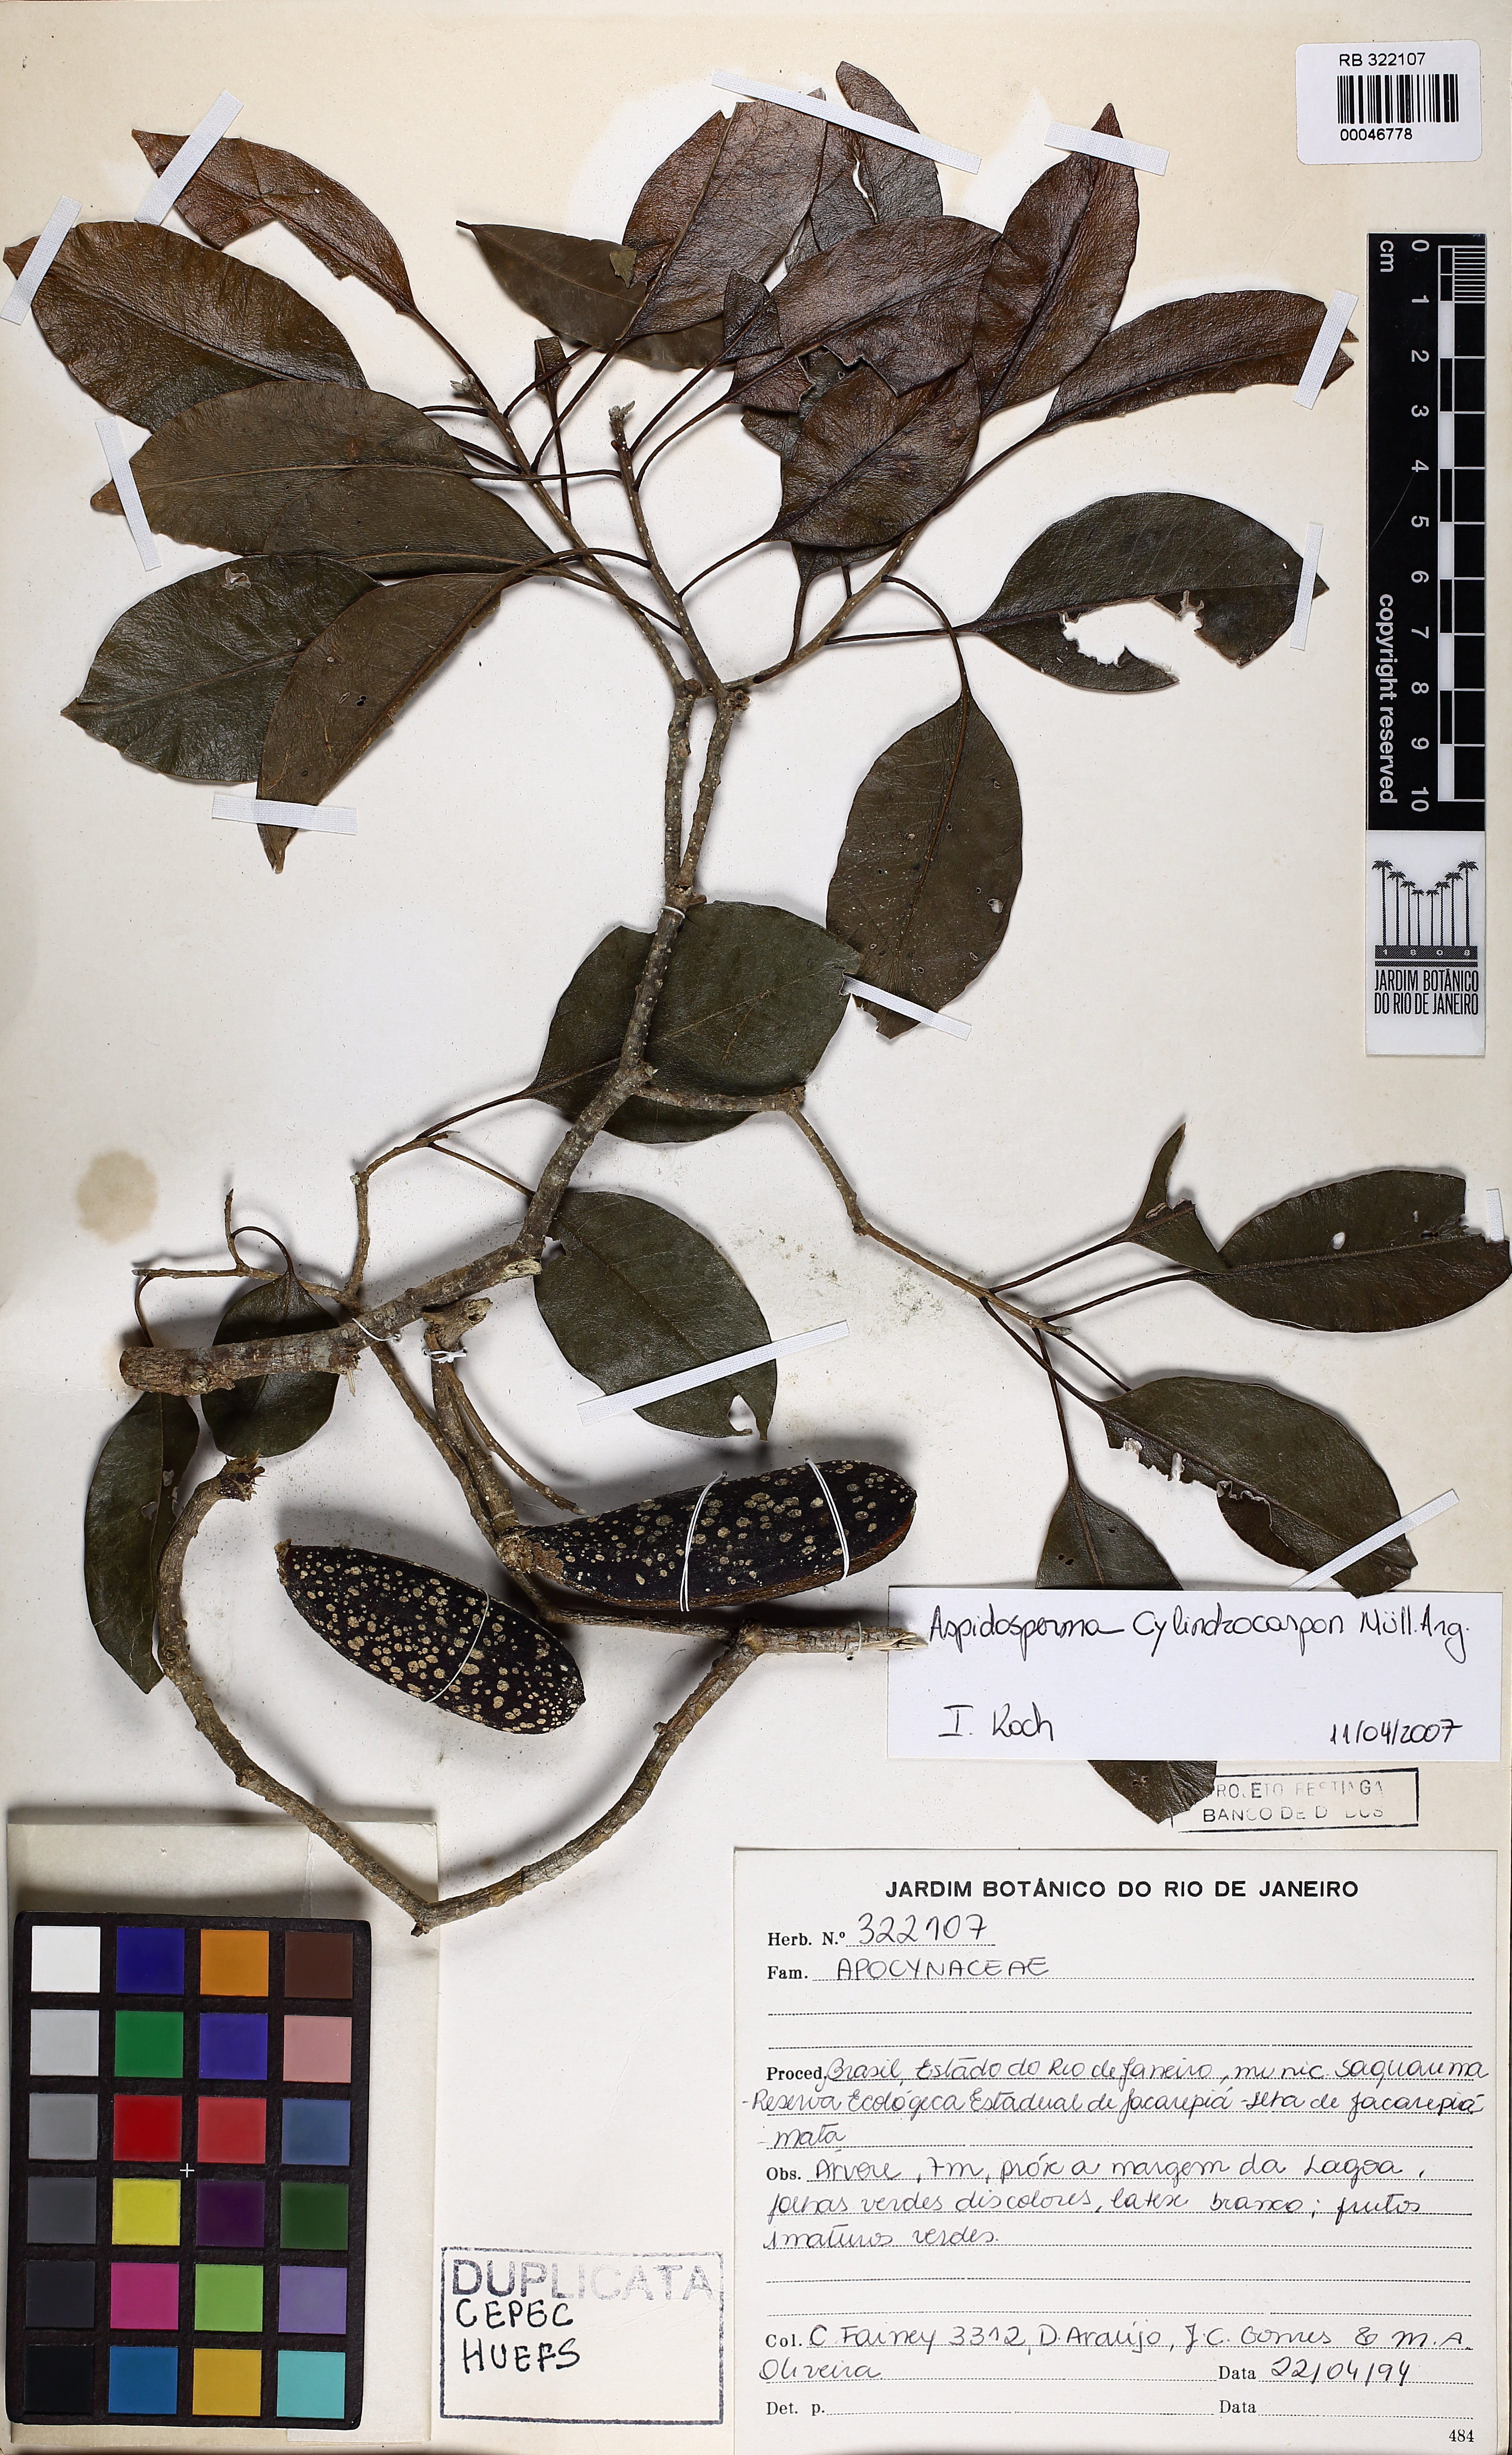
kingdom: Plantae
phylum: Tracheophyta
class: Magnoliopsida
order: Gentianales
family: Apocynaceae
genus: Aspidosperma
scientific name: Aspidosperma cylindrocarpon
